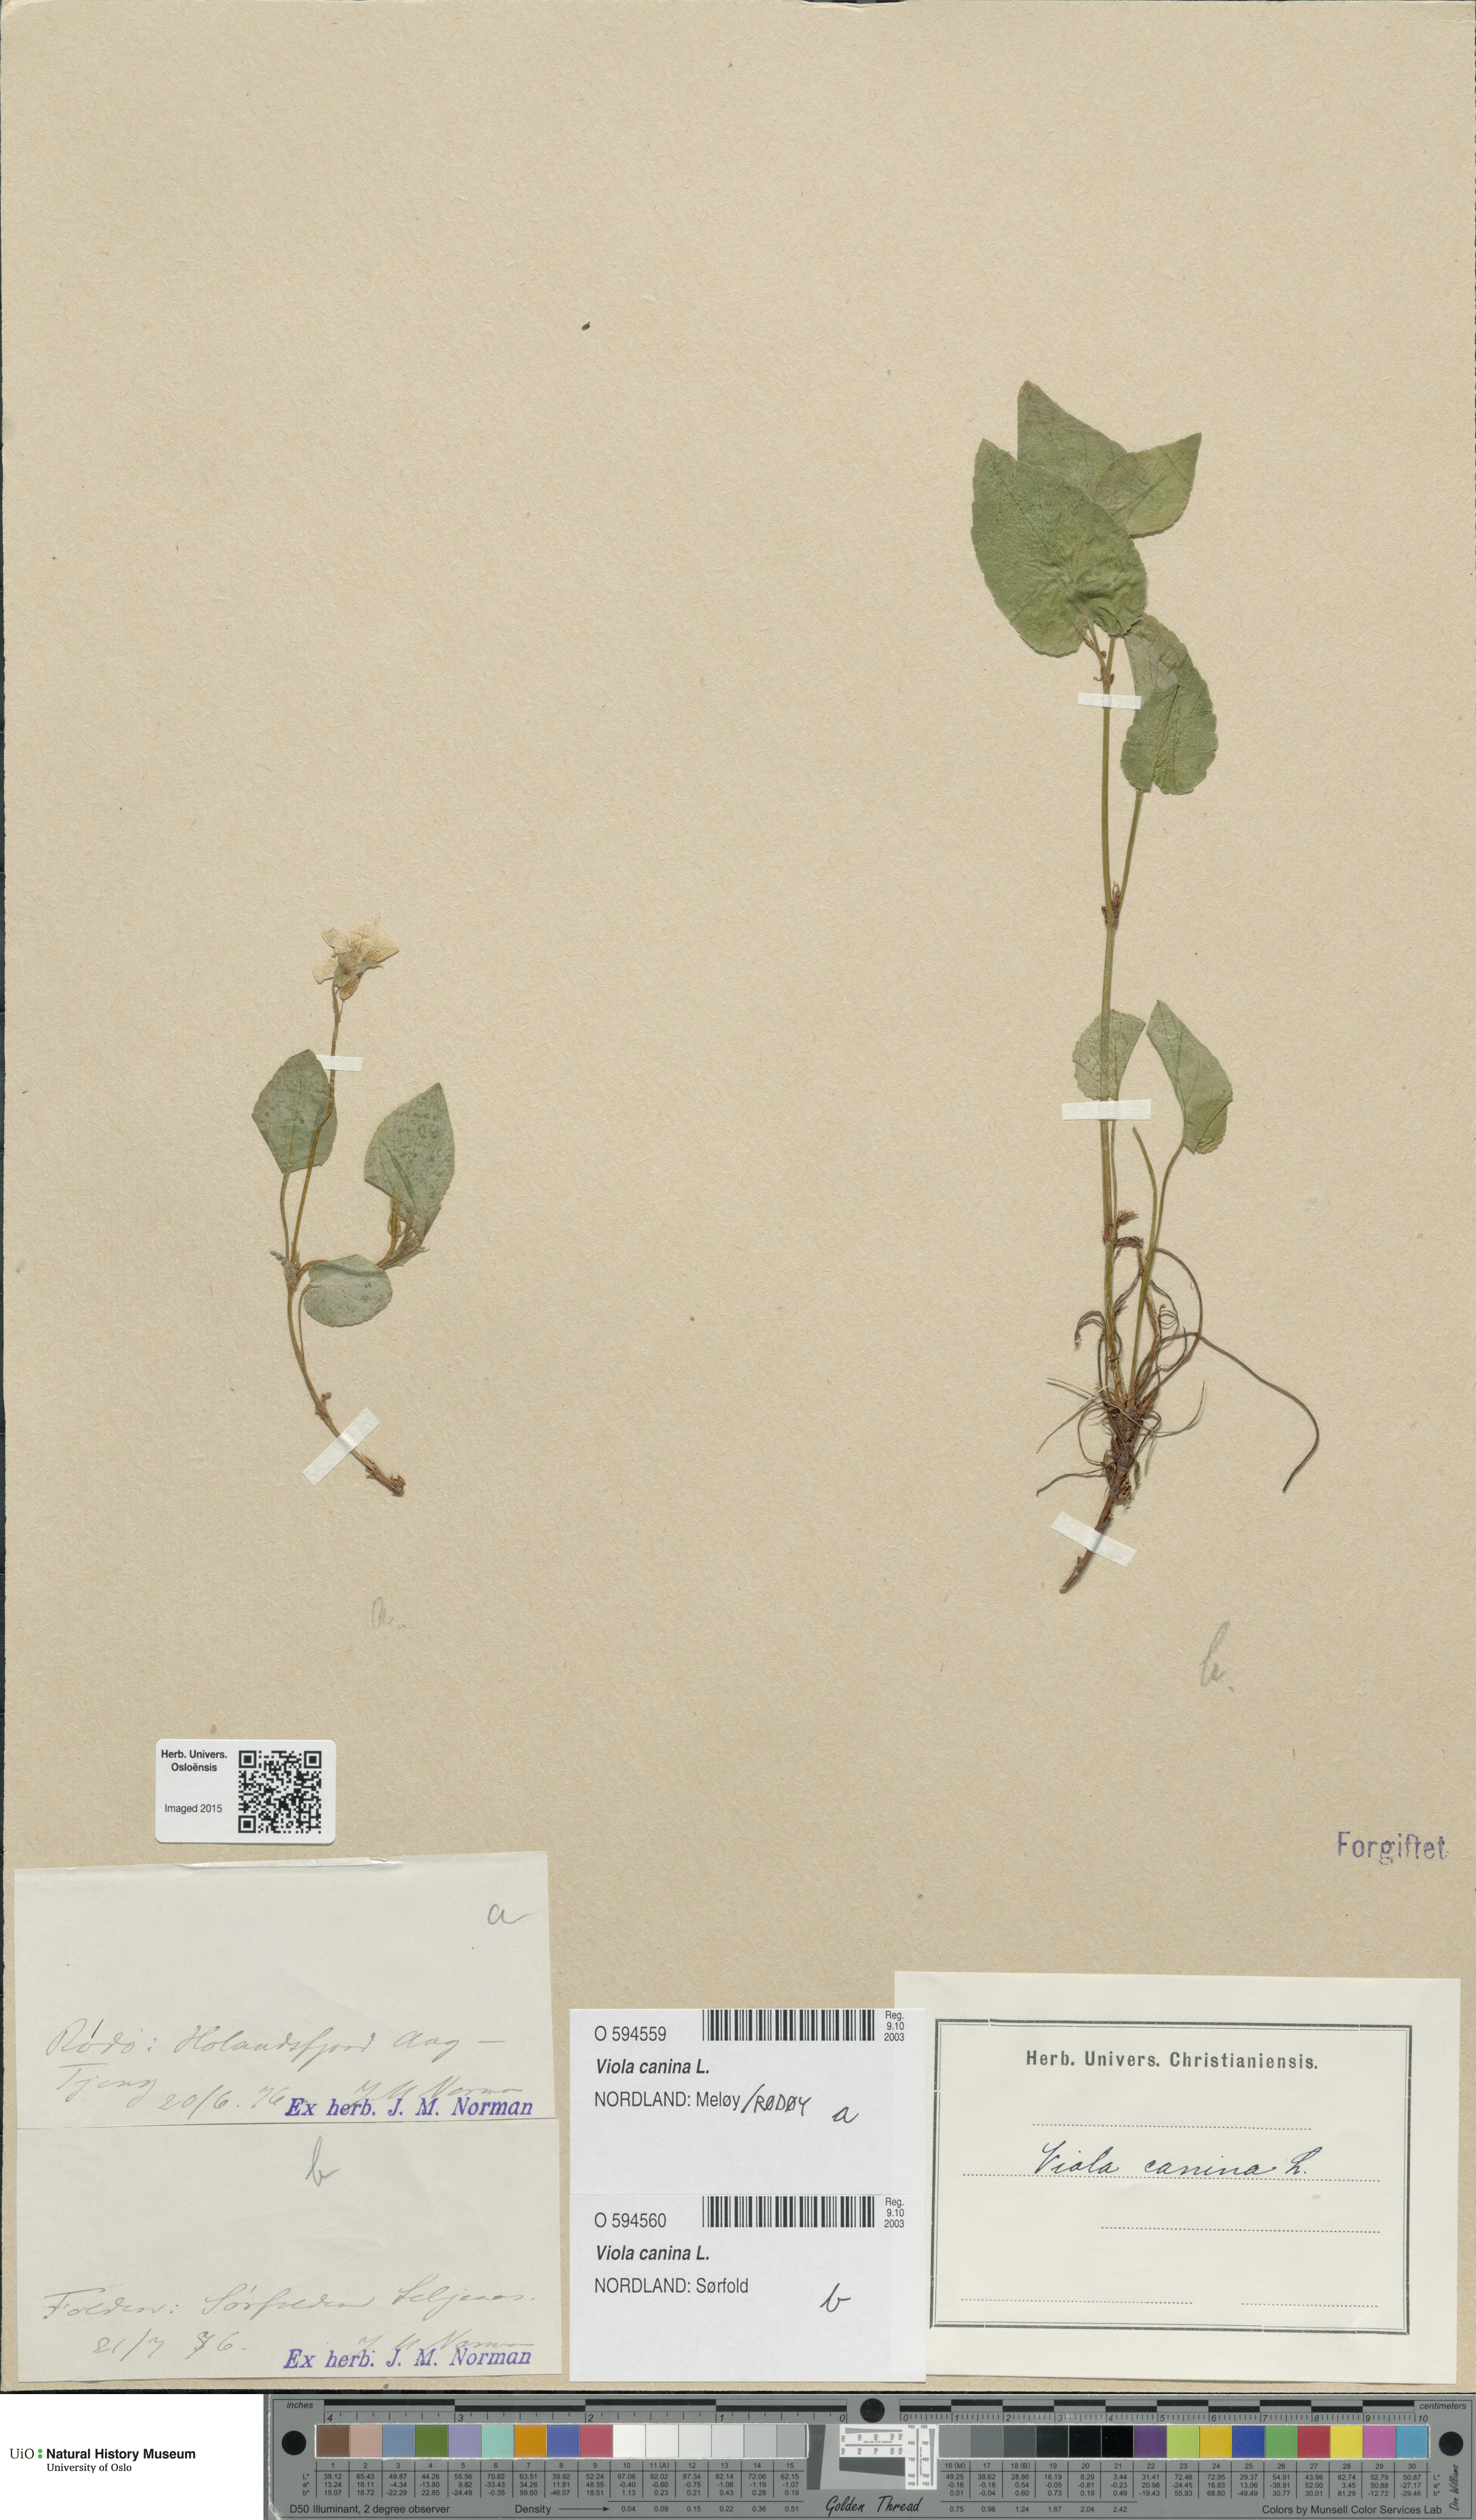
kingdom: Plantae
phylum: Tracheophyta
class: Magnoliopsida
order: Malpighiales
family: Violaceae
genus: Viola
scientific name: Viola canina
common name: Heath dog-violet
